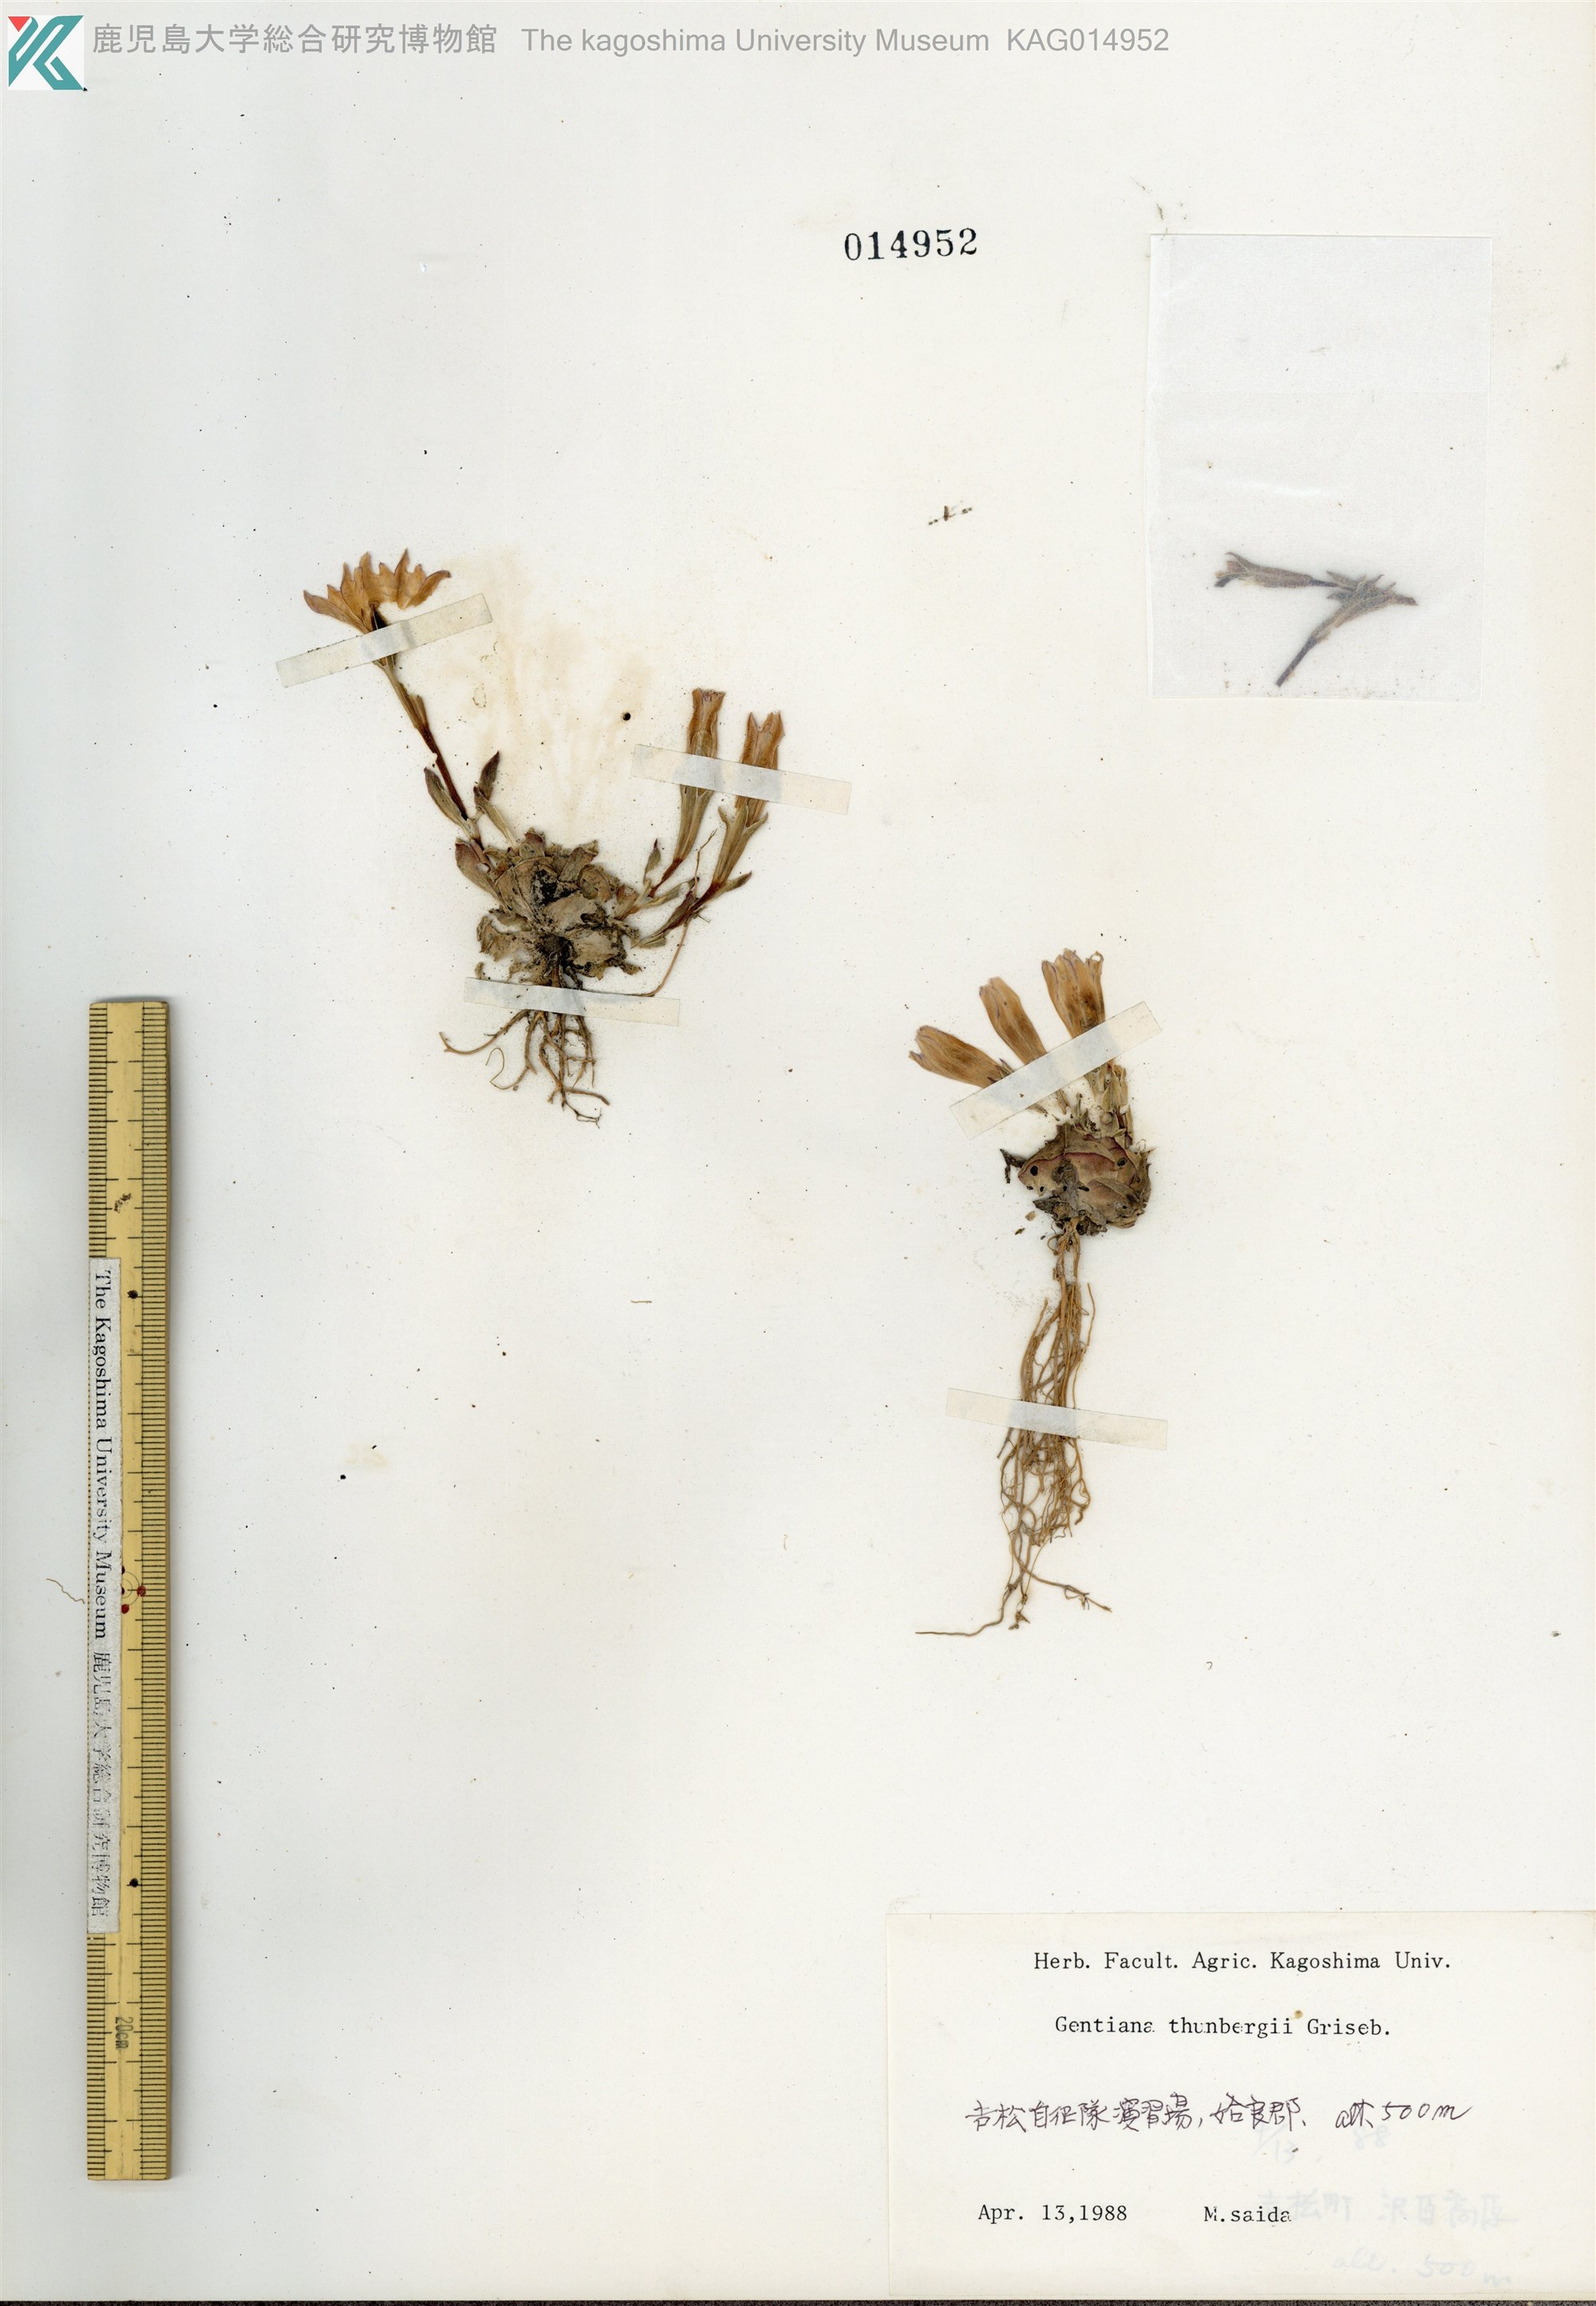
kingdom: Plantae
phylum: Tracheophyta
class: Magnoliopsida
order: Gentianales
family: Gentianaceae
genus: Gentiana
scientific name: Gentiana thunbergii
